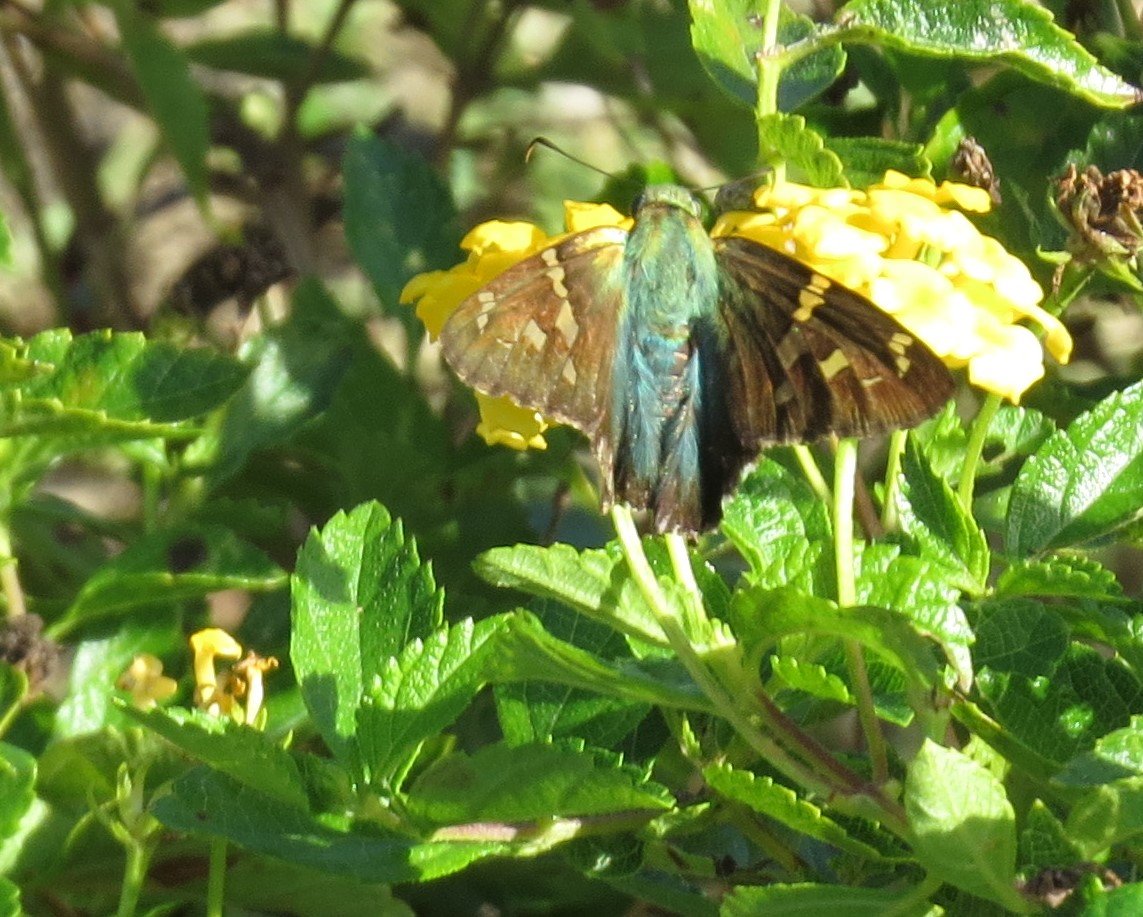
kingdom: Animalia
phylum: Arthropoda
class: Insecta
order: Lepidoptera
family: Hesperiidae
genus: Urbanus
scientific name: Urbanus proteus
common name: Long-tailed Skipper
